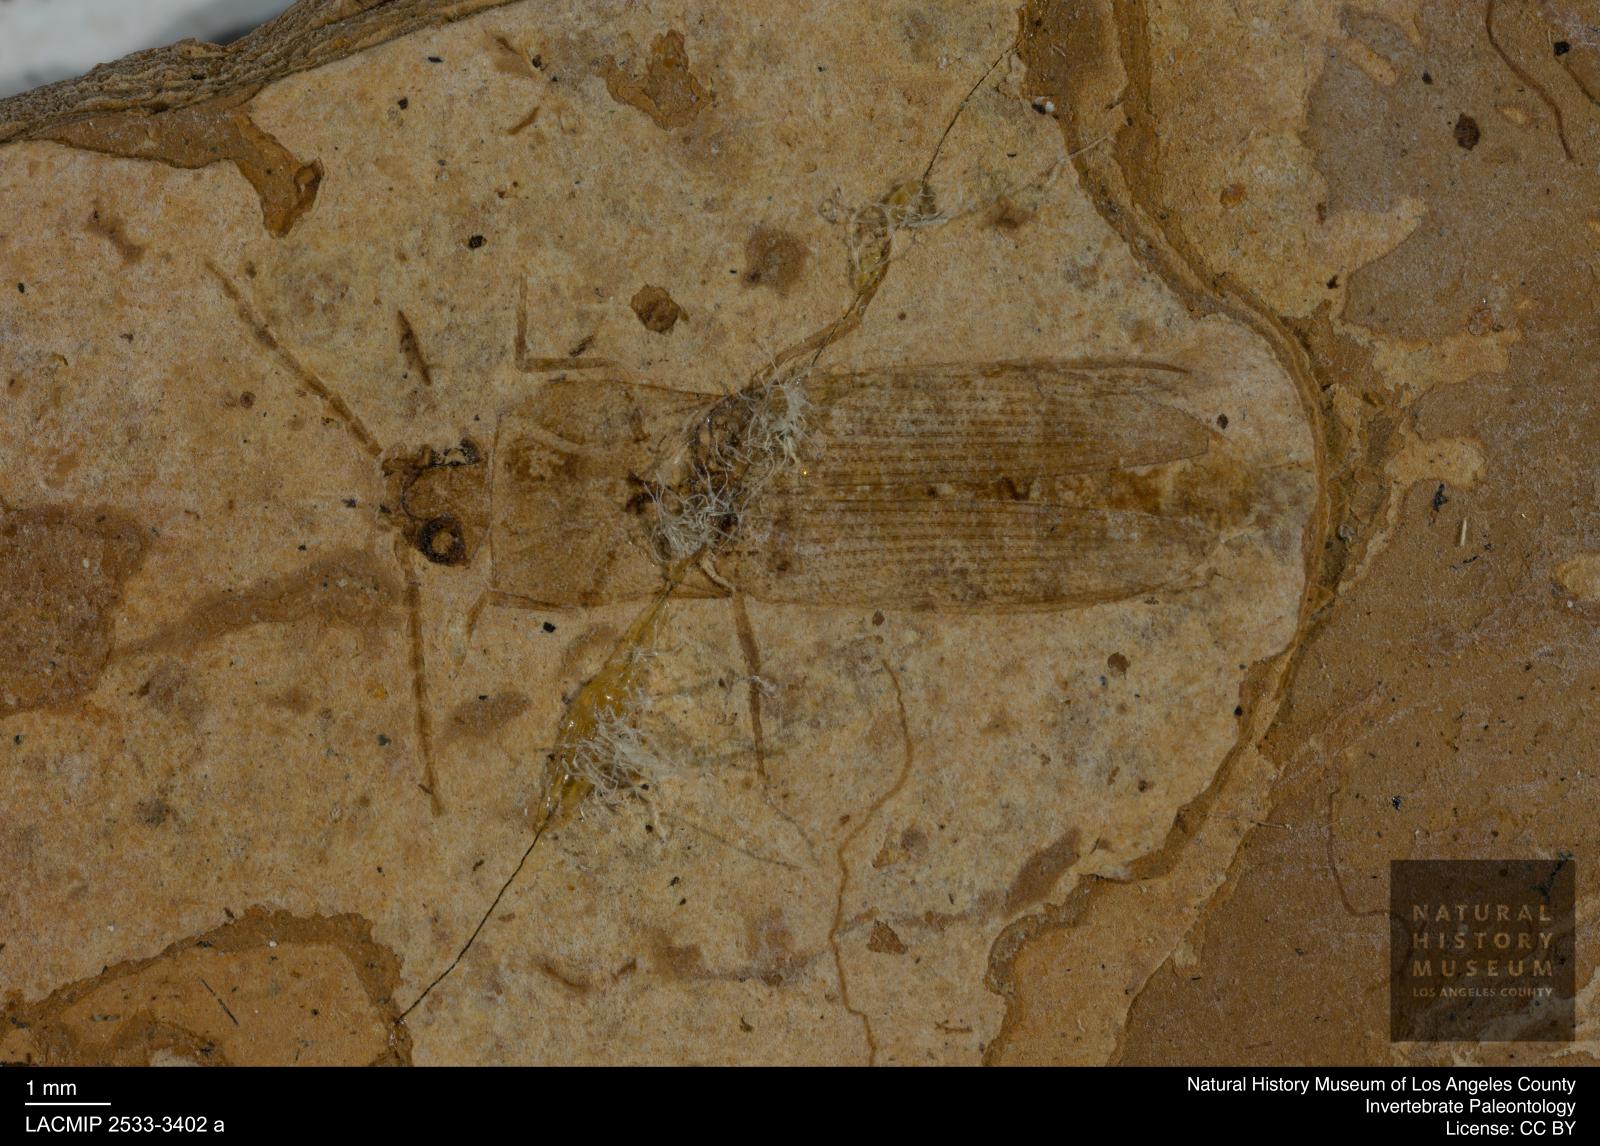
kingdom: Animalia
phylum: Arthropoda
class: Insecta
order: Coleoptera
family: Elateridae
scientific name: Elateridae
